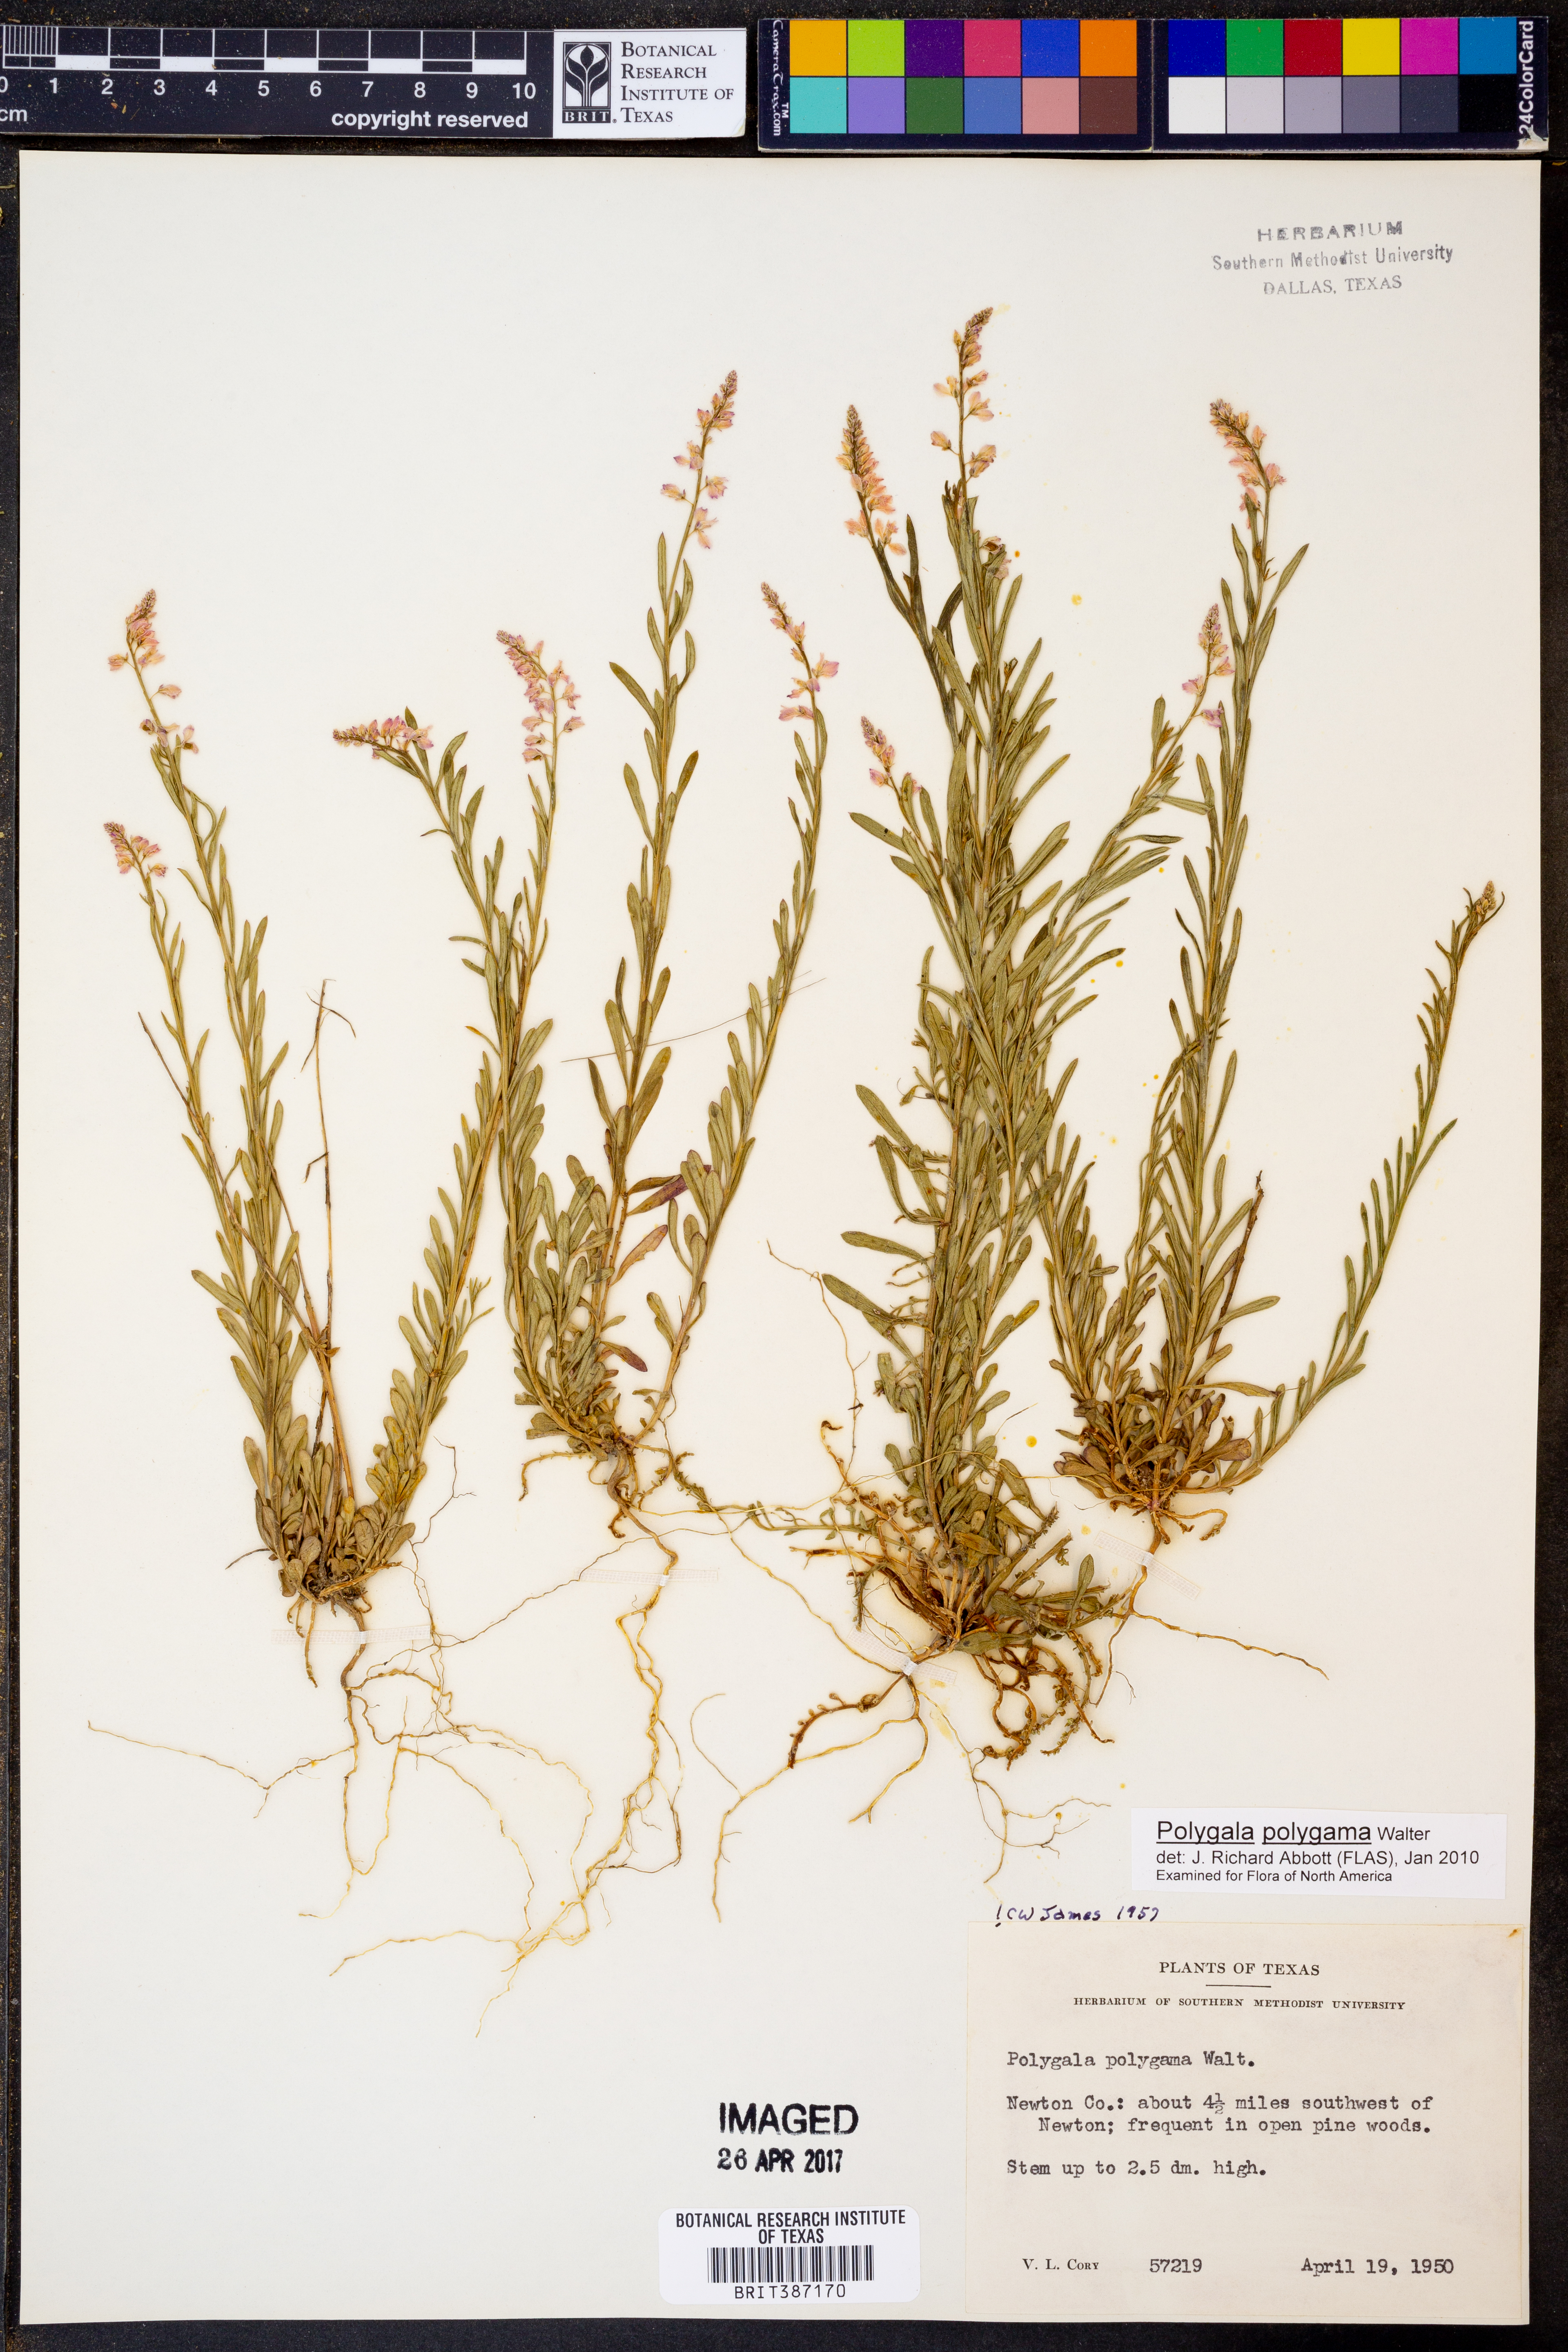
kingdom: Plantae
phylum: Tracheophyta
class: Magnoliopsida
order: Fabales
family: Polygalaceae
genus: Polygala
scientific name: Polygala polygama
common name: Bitter milkwort
